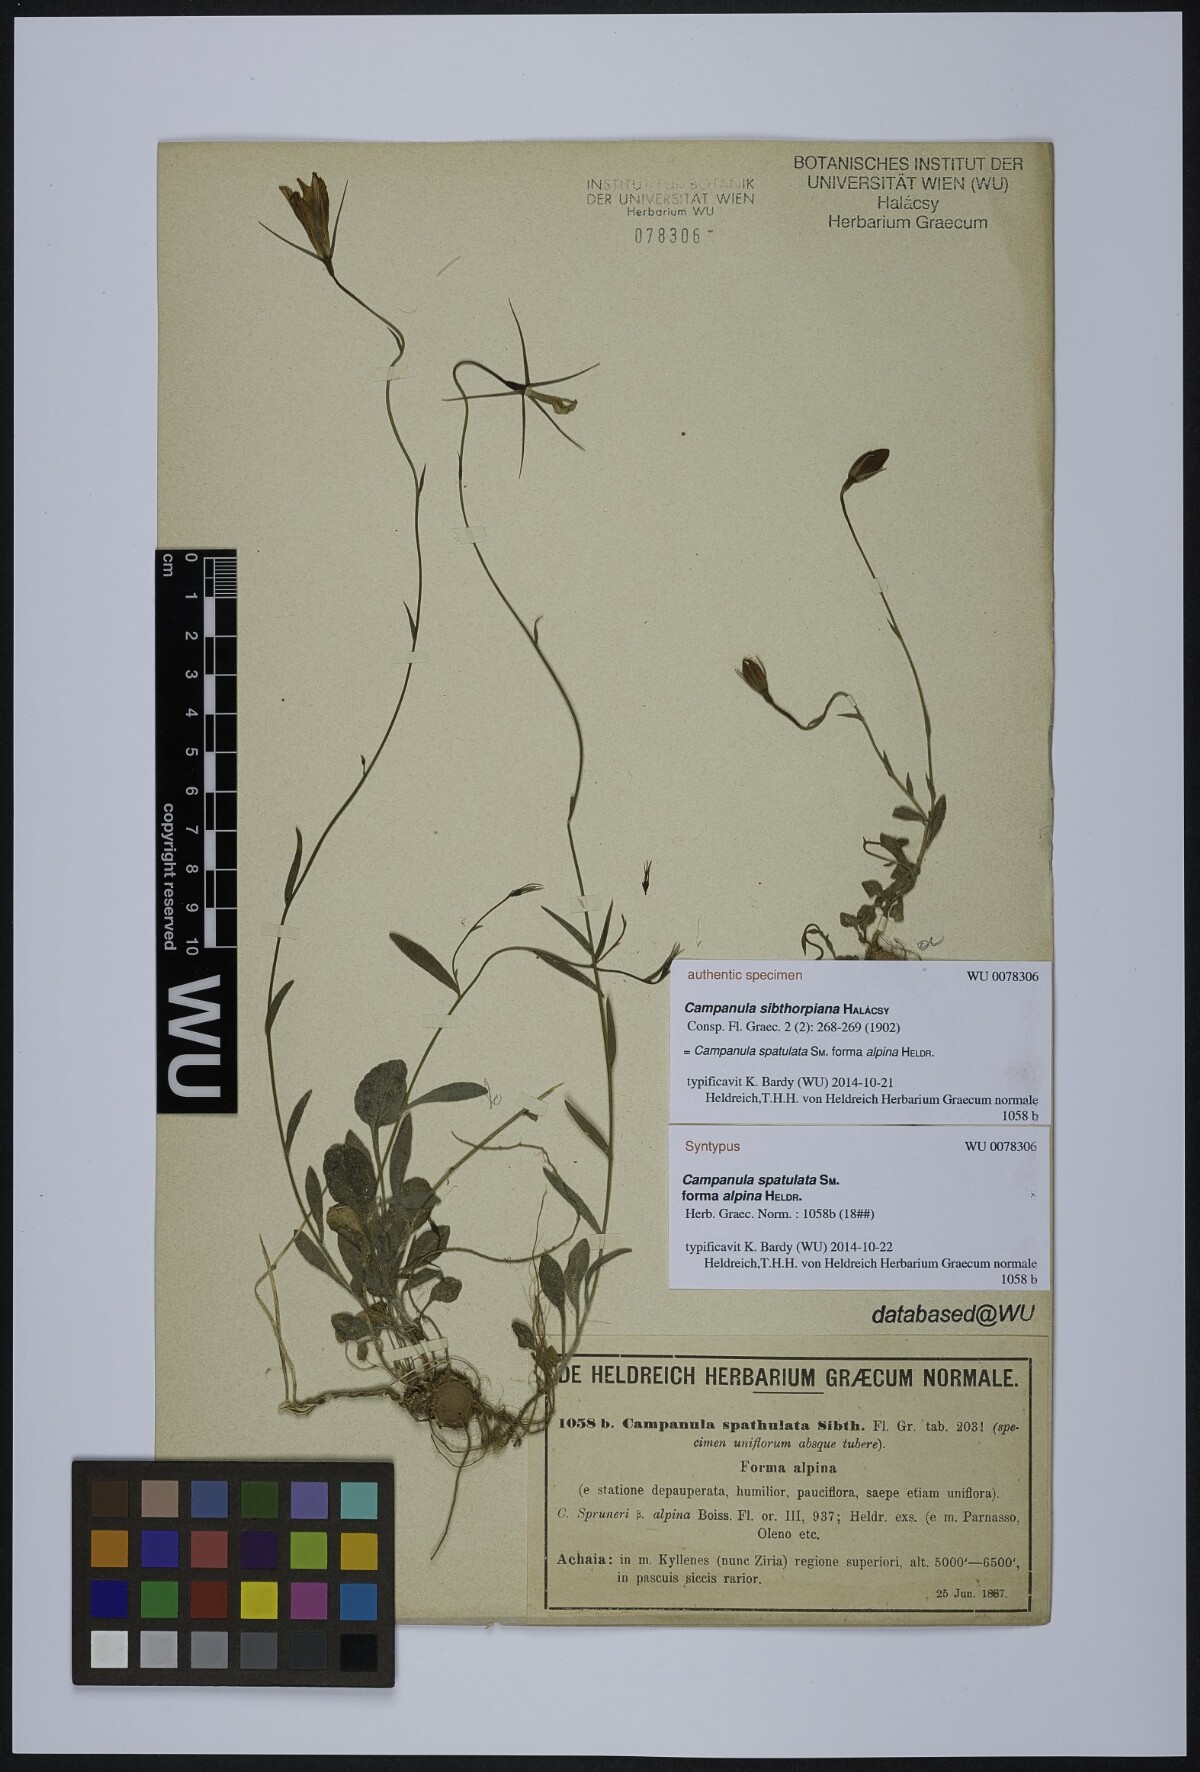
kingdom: Plantae
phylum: Tracheophyta
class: Magnoliopsida
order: Asterales
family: Campanulaceae
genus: Campanula
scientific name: Campanula spatulata
